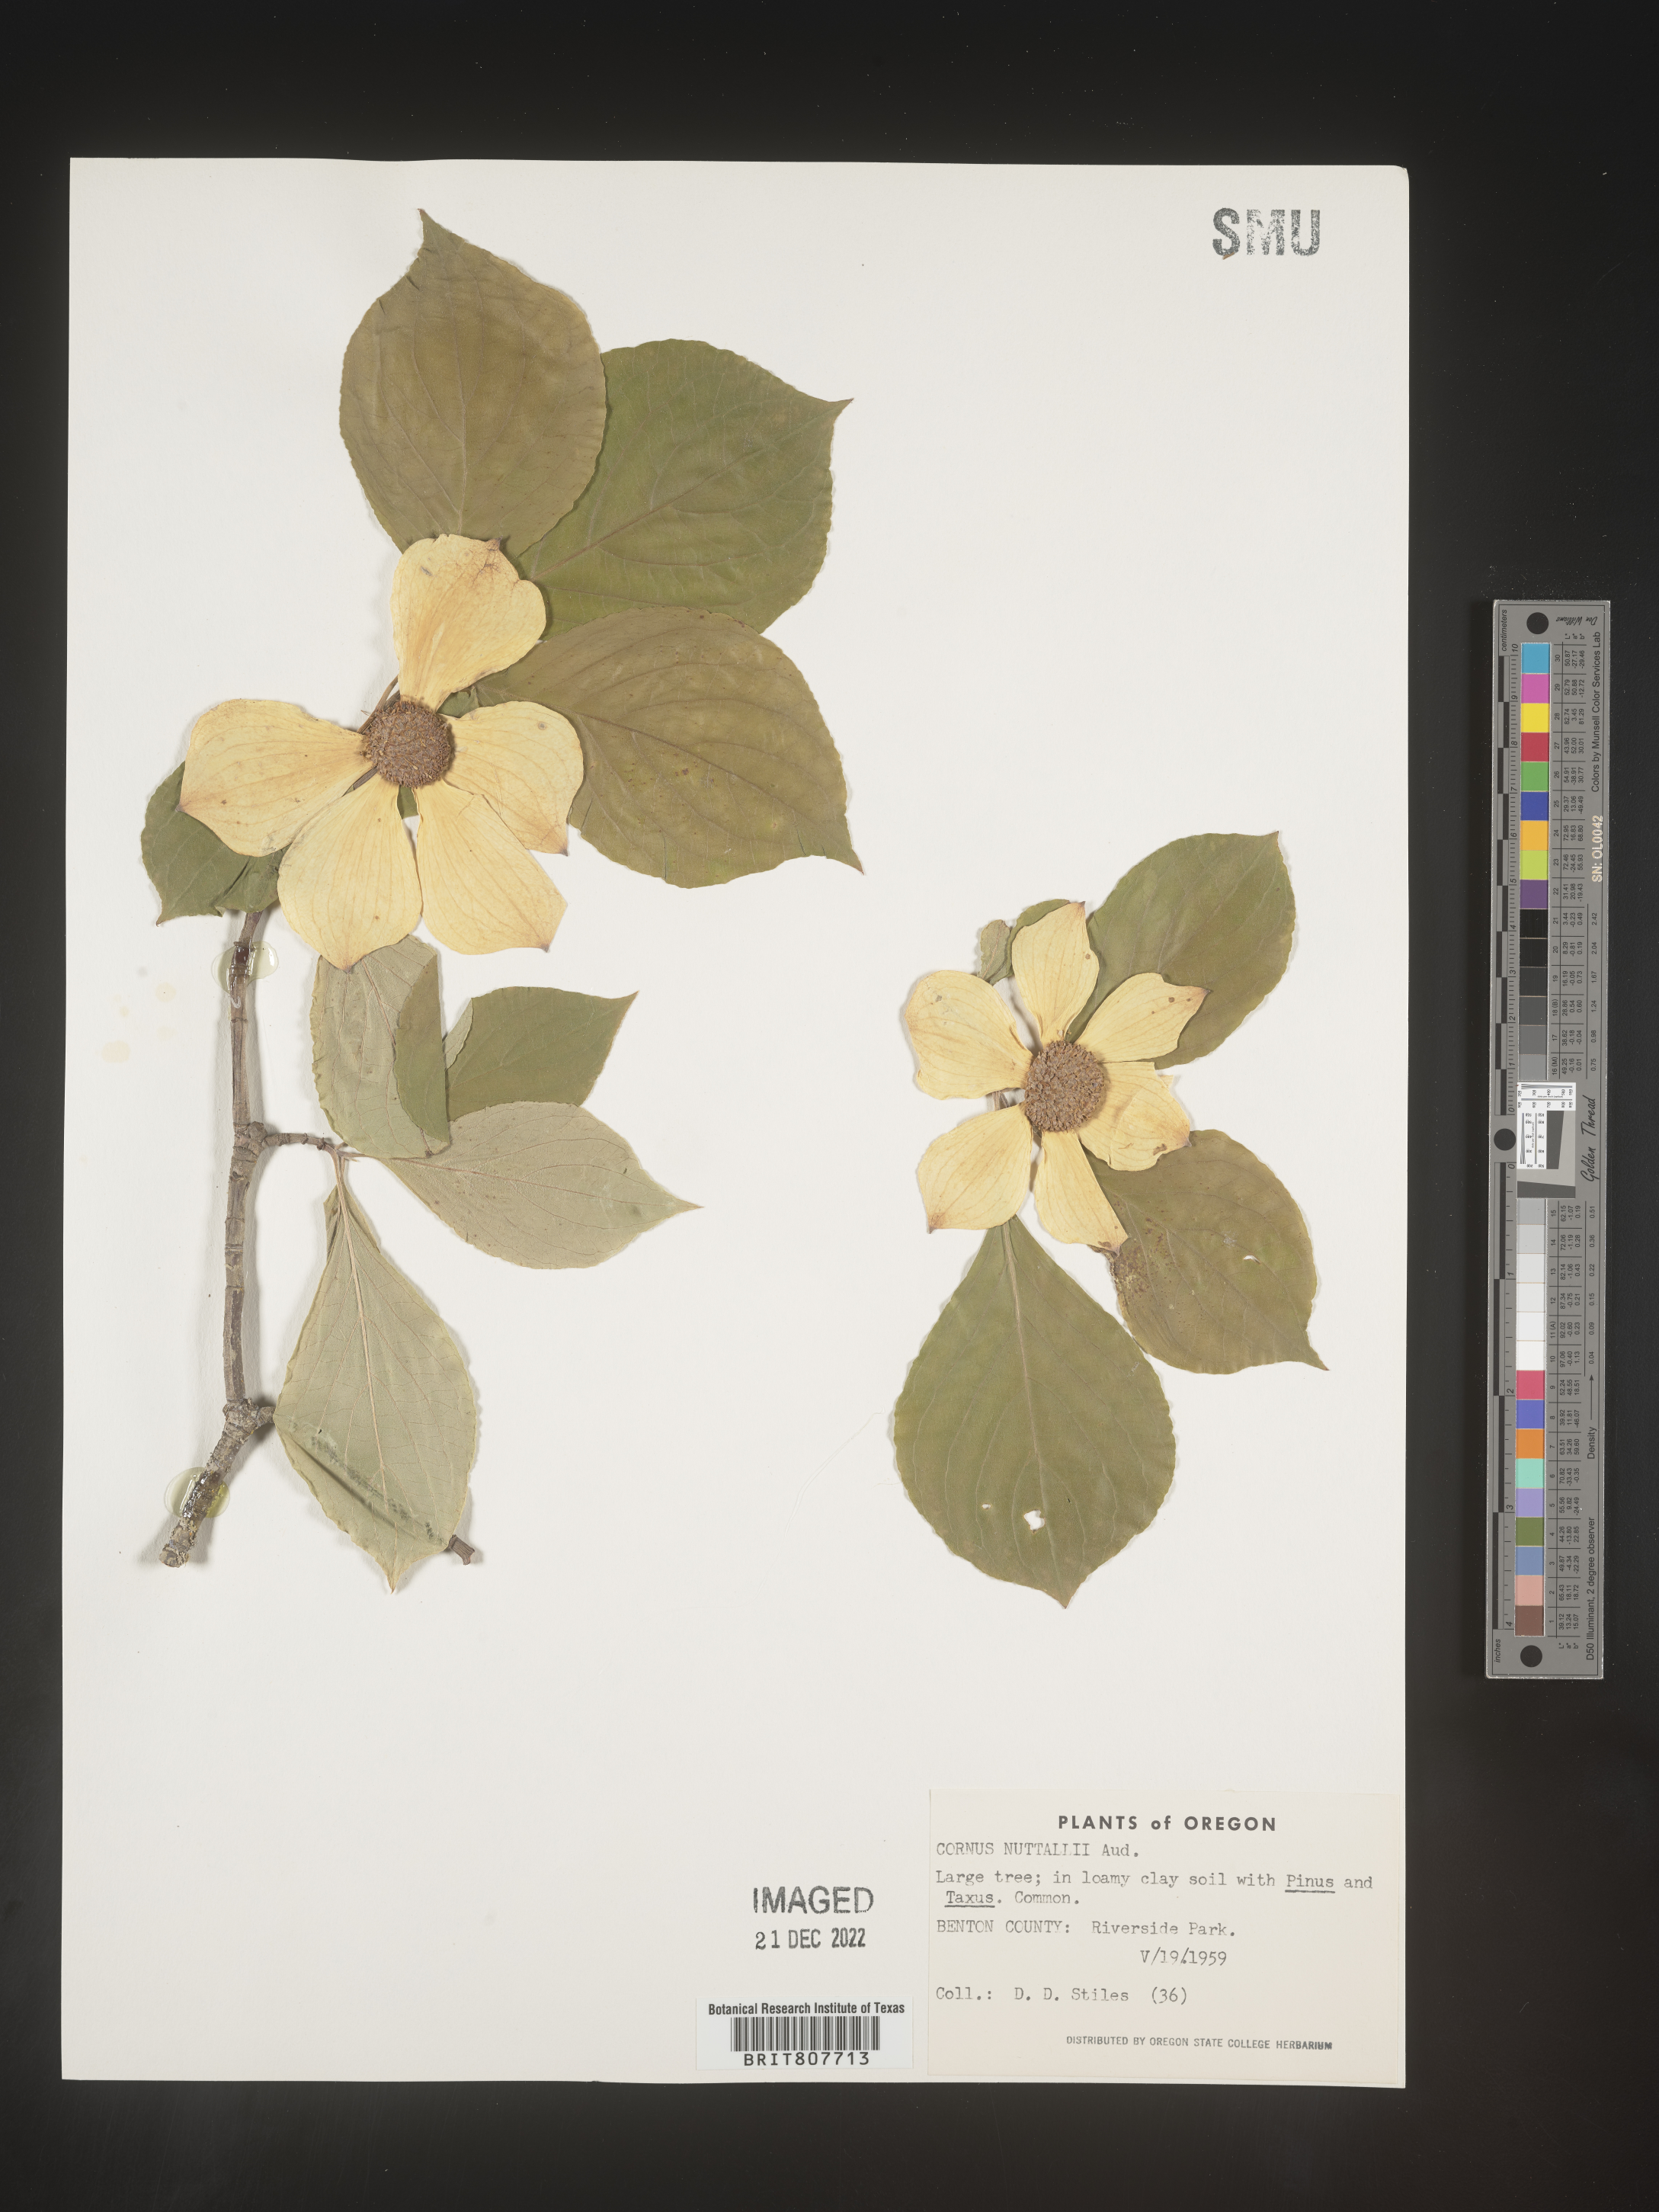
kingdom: Plantae
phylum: Tracheophyta
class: Magnoliopsida
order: Cornales
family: Cornaceae
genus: Cornus
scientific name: Cornus nuttallii
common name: Pacific dogwood
